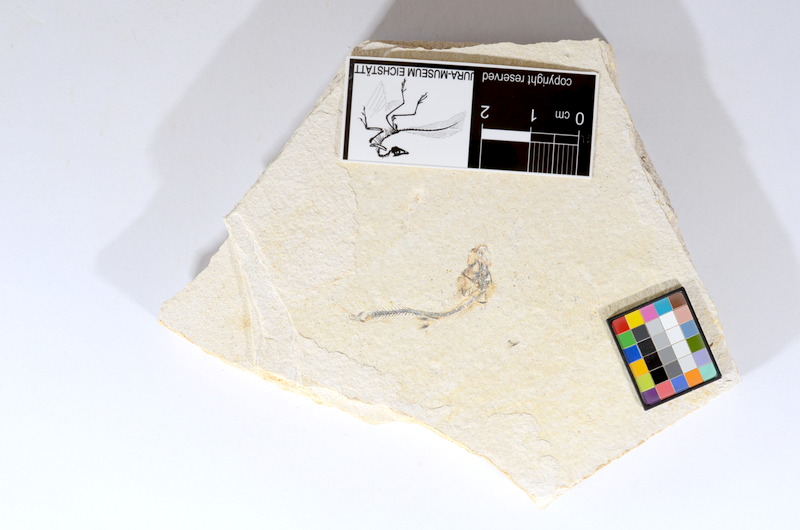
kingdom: Animalia
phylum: Chordata
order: Salmoniformes
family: Orthogonikleithridae
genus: Orthogonikleithrus
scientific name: Orthogonikleithrus hoelli
